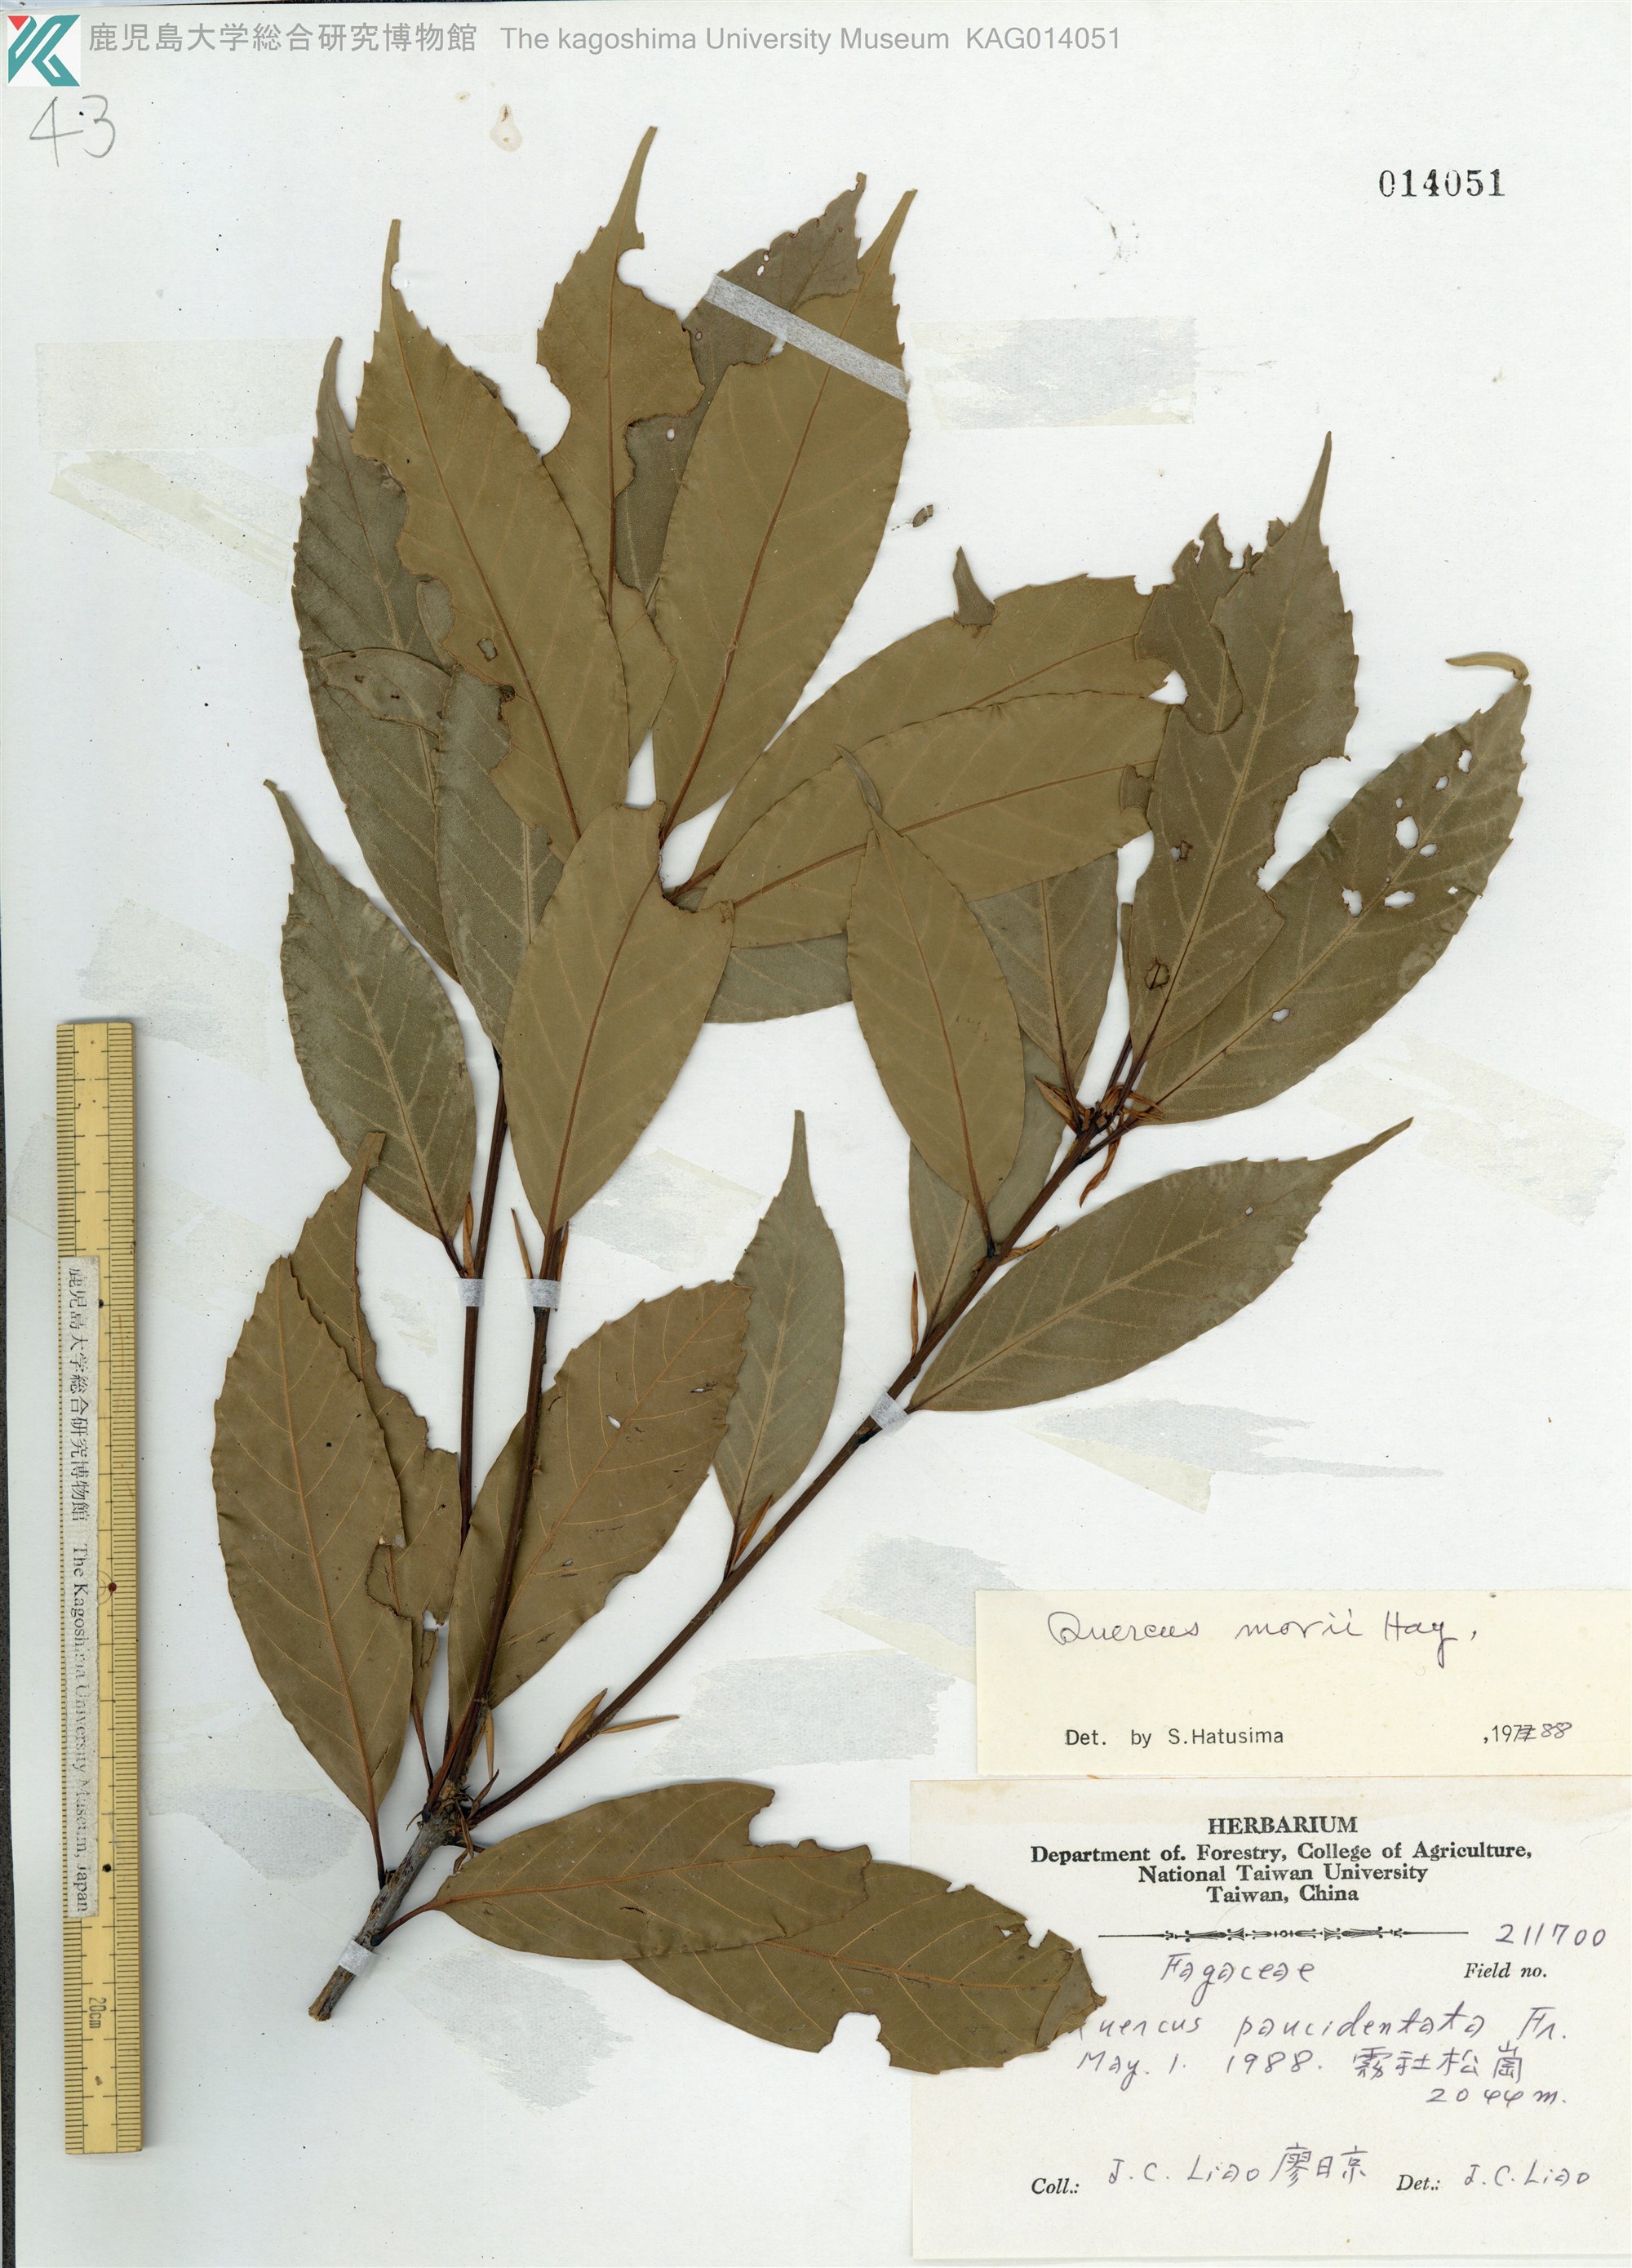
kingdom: Plantae
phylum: Tracheophyta
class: Magnoliopsida
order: Fagales
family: Fagaceae
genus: Quercus
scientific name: Quercus morii
